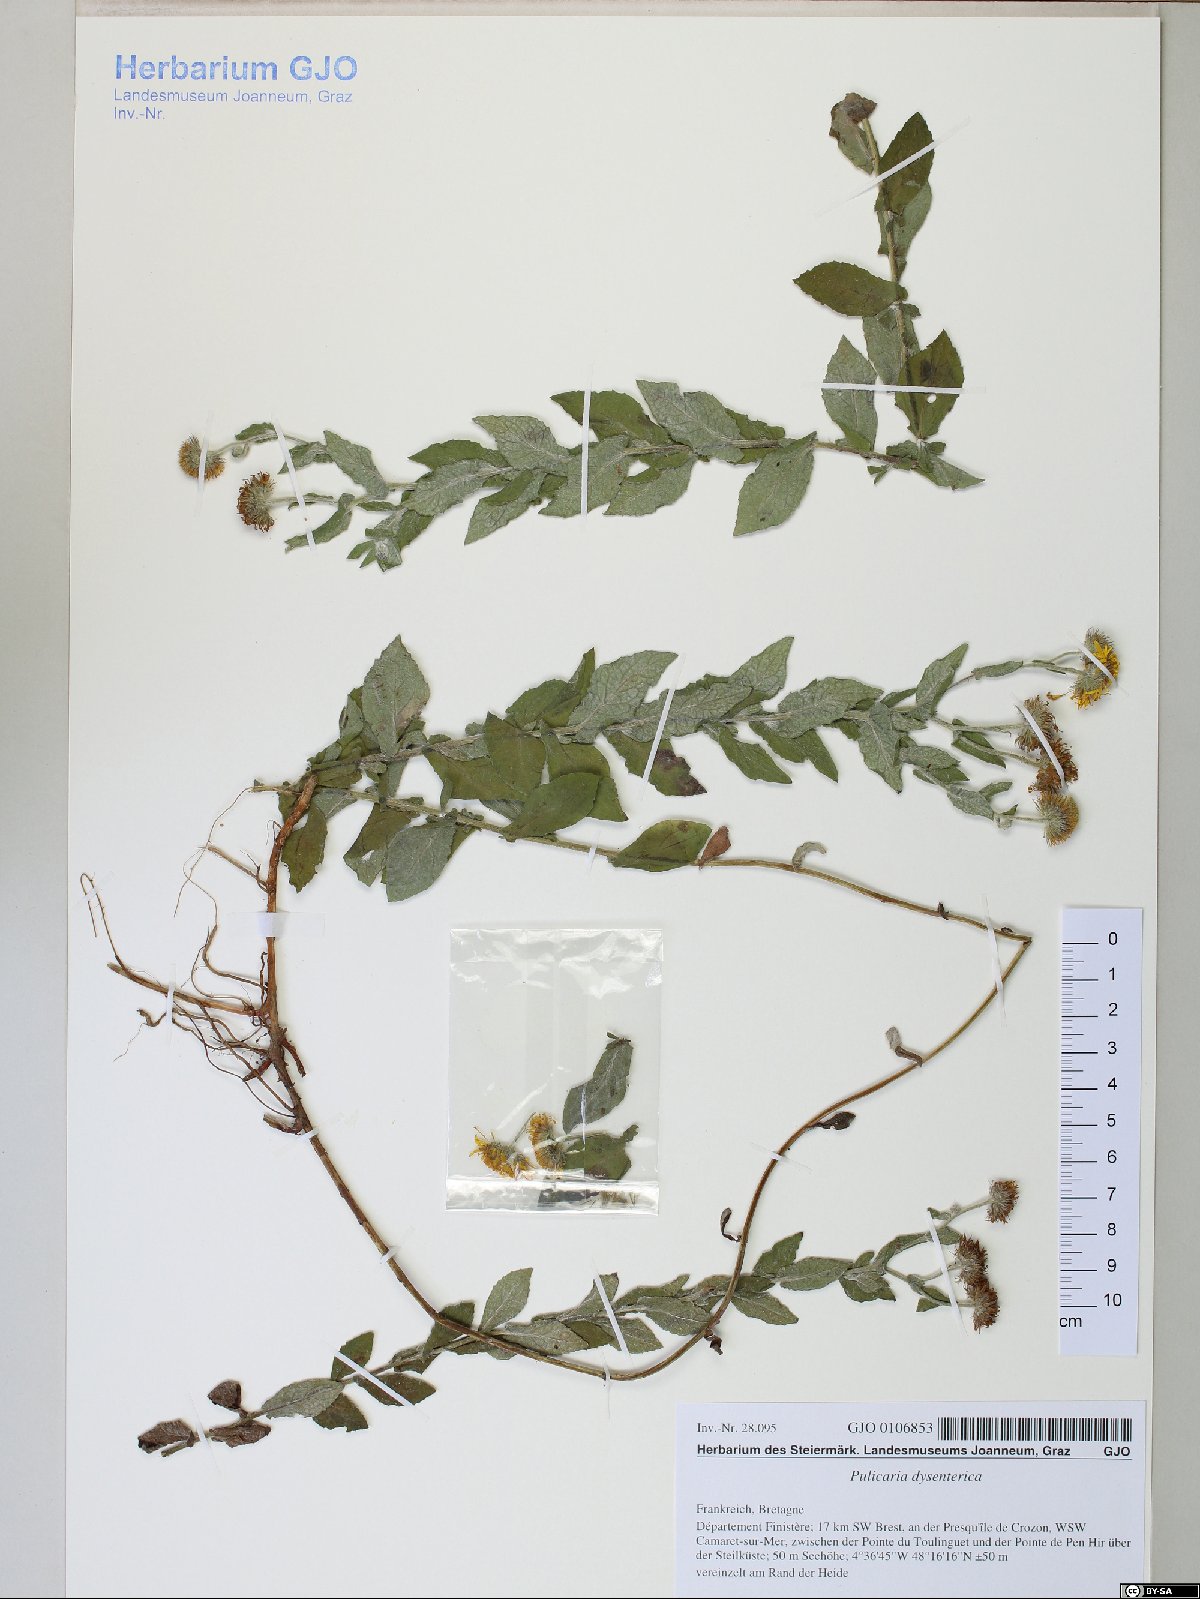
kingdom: Plantae
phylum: Tracheophyta
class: Magnoliopsida
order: Asterales
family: Asteraceae
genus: Pulicaria
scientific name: Pulicaria dysenterica
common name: Common fleabane
